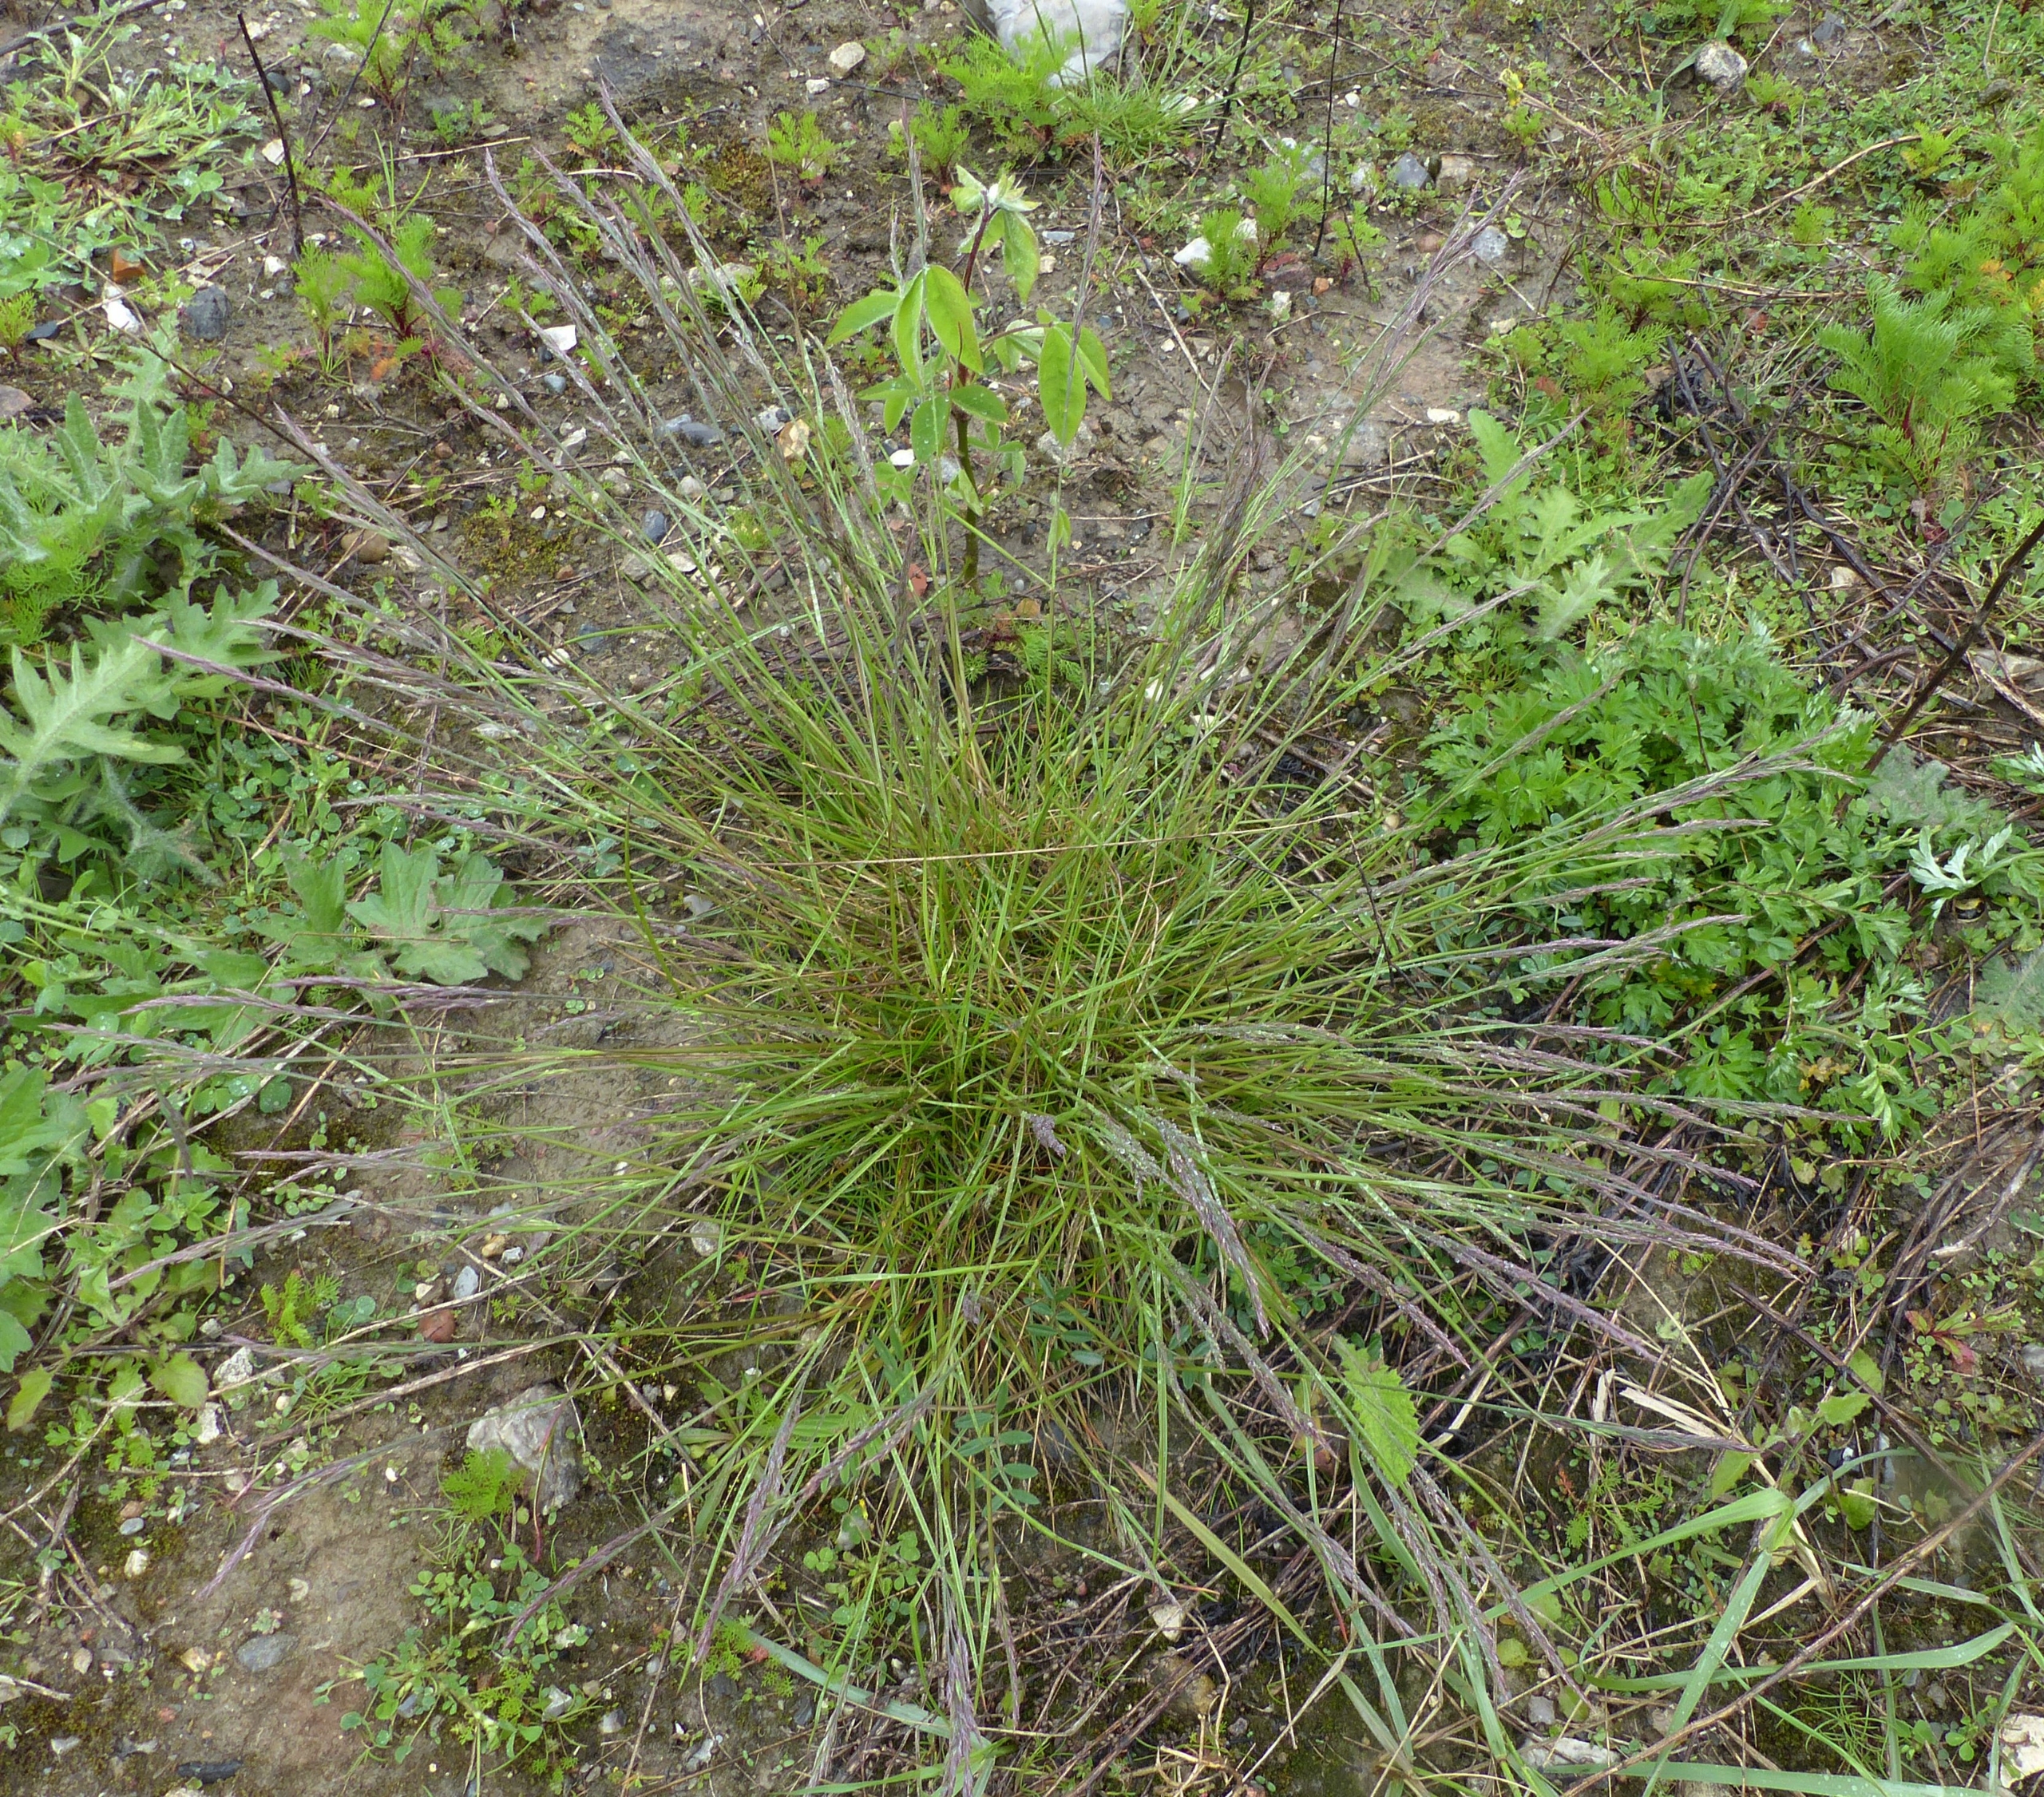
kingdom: Plantae
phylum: Tracheophyta
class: Liliopsida
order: Poales
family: Poaceae
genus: Festuca
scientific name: Festuca trachyphylla
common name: Bakke-svingel
